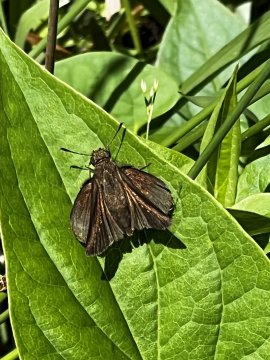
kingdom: Animalia
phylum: Arthropoda
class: Insecta
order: Lepidoptera
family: Hesperiidae
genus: Euphyes
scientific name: Euphyes vestris
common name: Dun Skipper
